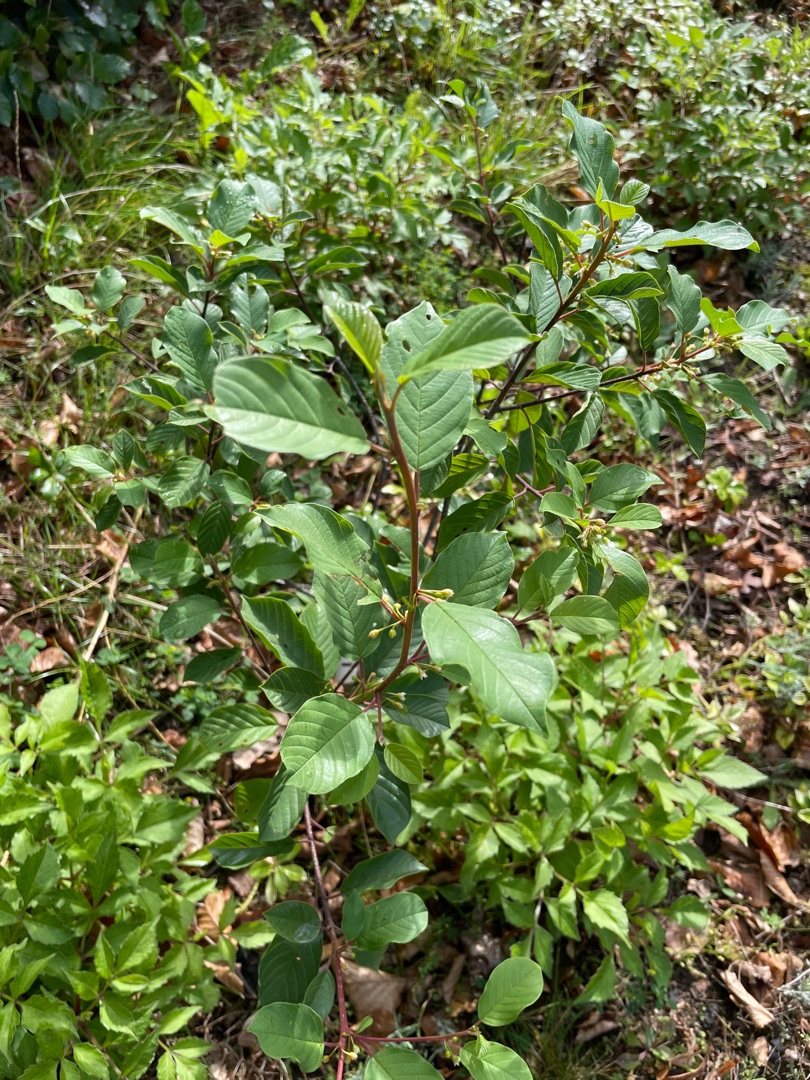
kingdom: Plantae
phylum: Tracheophyta
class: Magnoliopsida
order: Rosales
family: Rhamnaceae
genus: Frangula
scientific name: Frangula alnus
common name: Tørst
